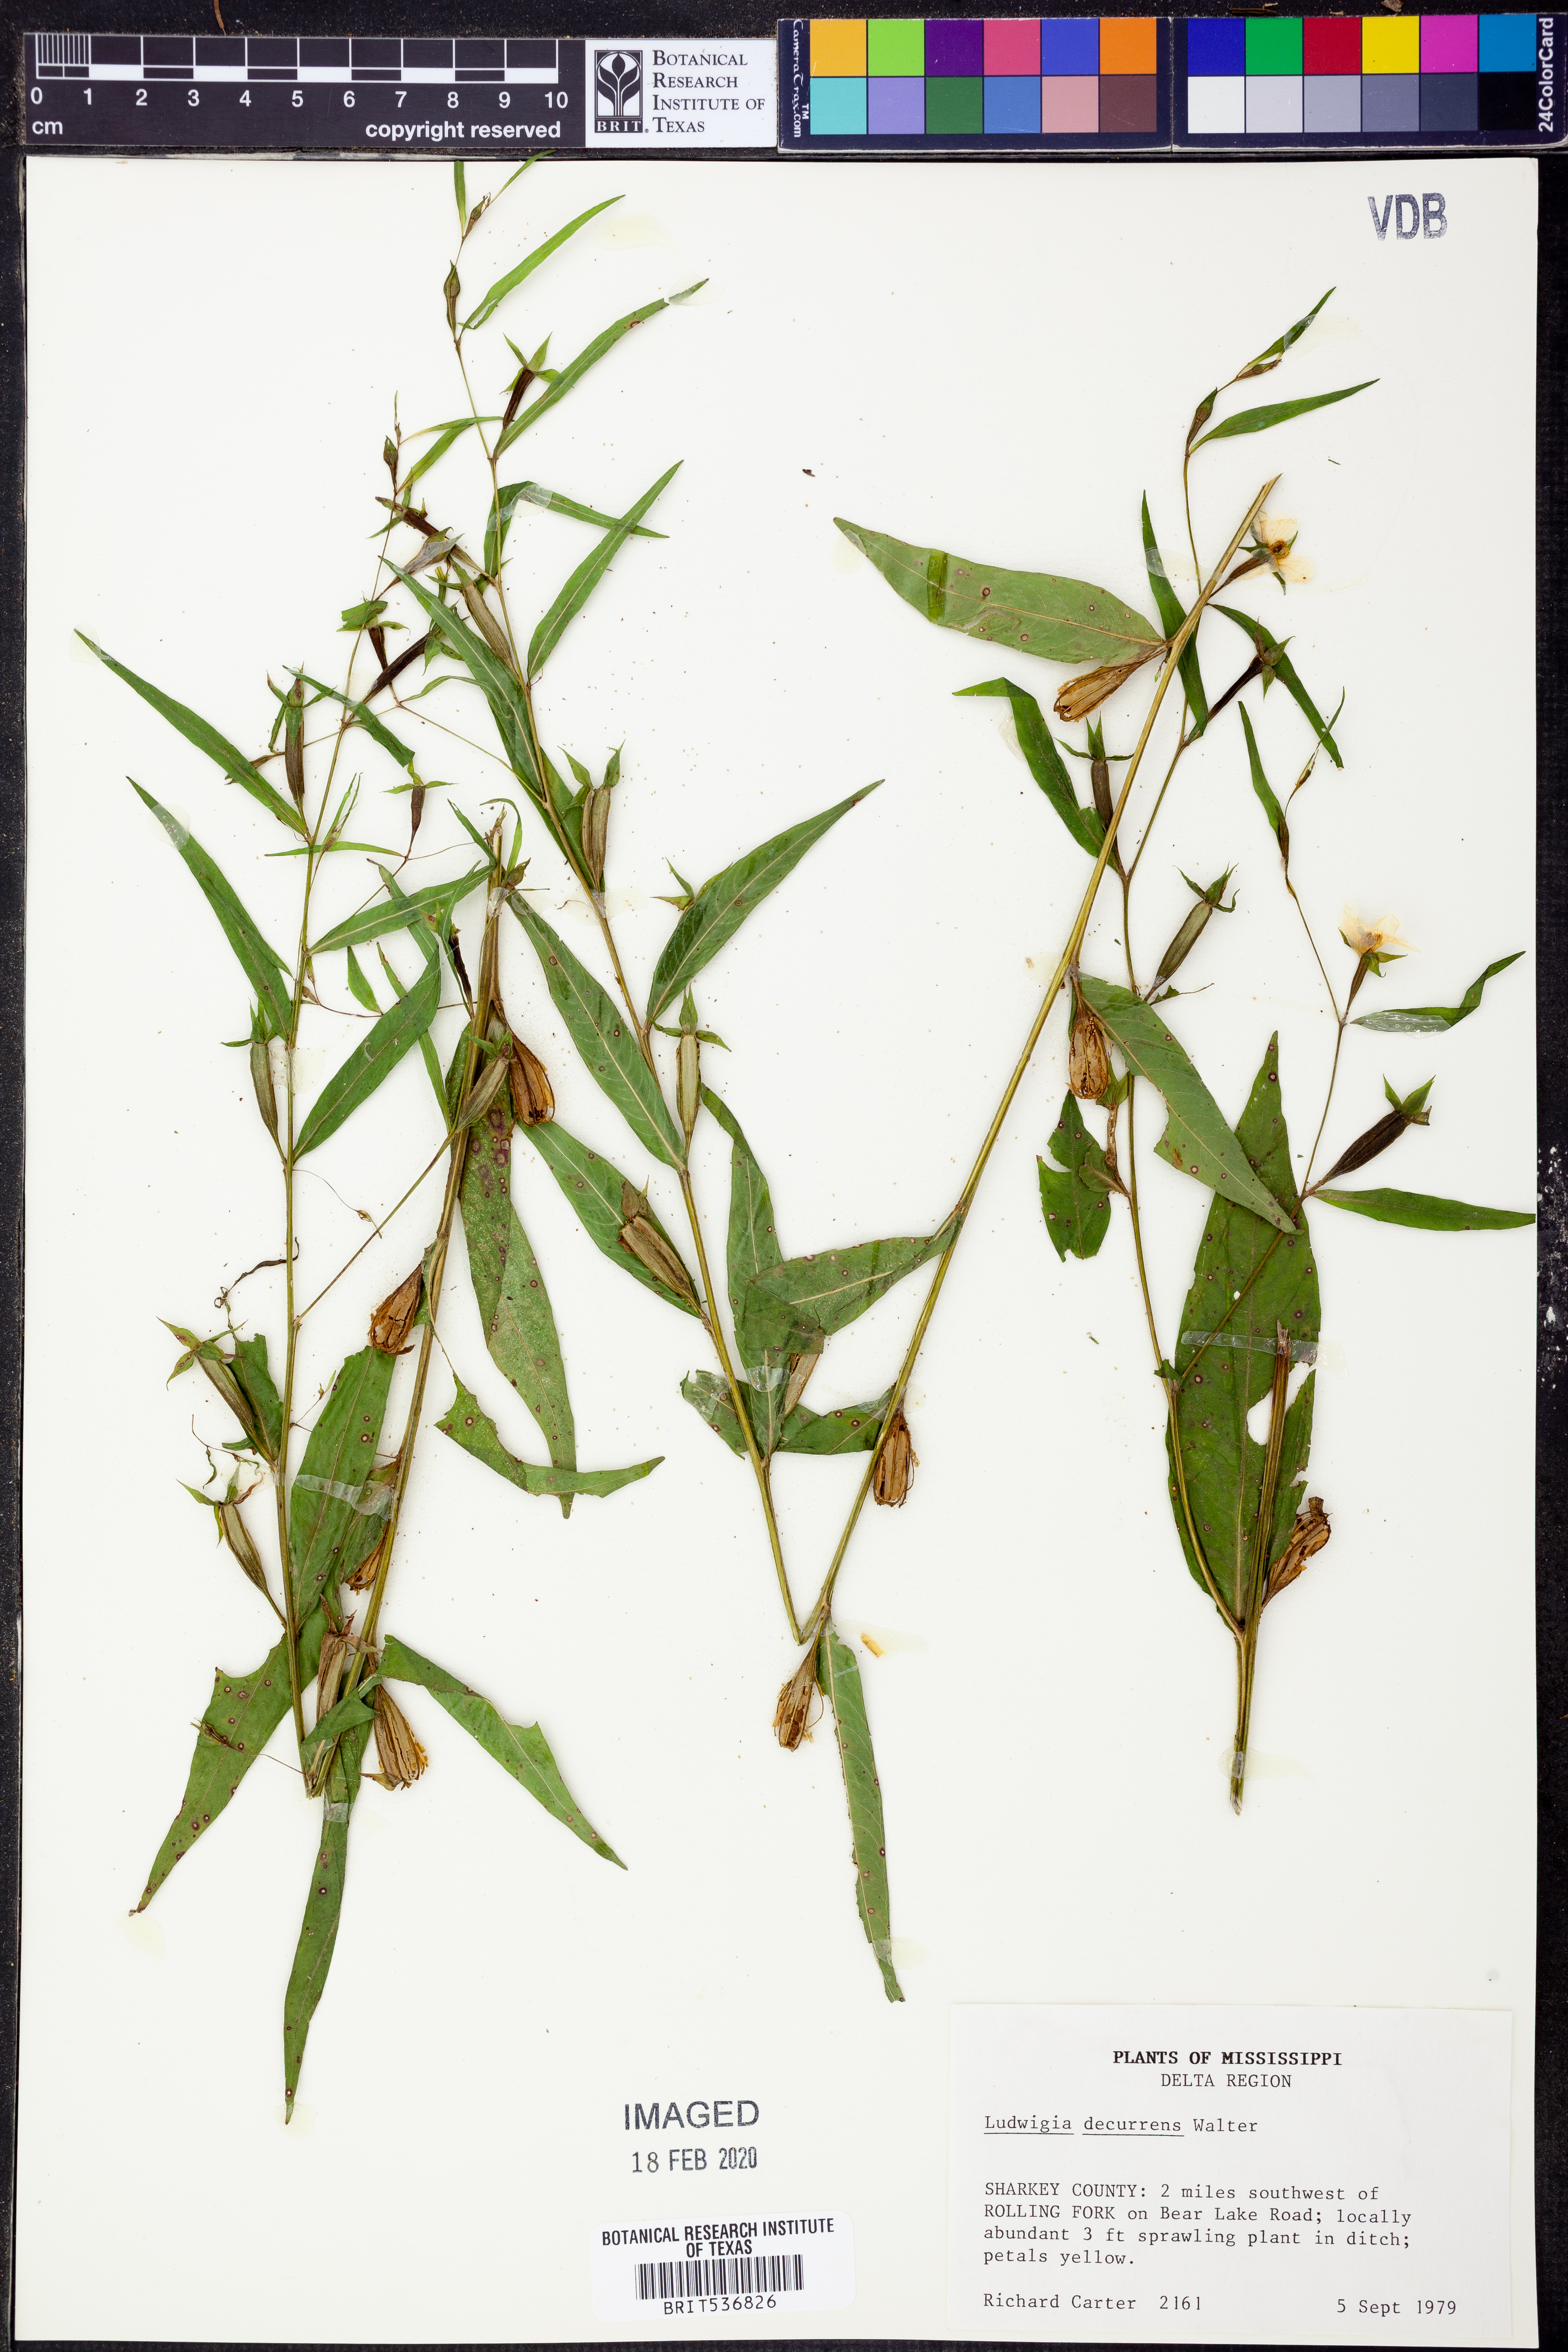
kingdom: Plantae
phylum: Tracheophyta
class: Magnoliopsida
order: Myrtales
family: Onagraceae
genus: Ludwigia
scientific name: Ludwigia decurrens
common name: Winged water-primrose
